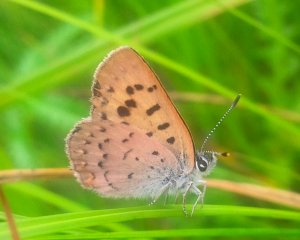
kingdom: Animalia
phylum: Arthropoda
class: Insecta
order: Lepidoptera
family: Lycaenidae
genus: Epidemia
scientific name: Epidemia dorcas
